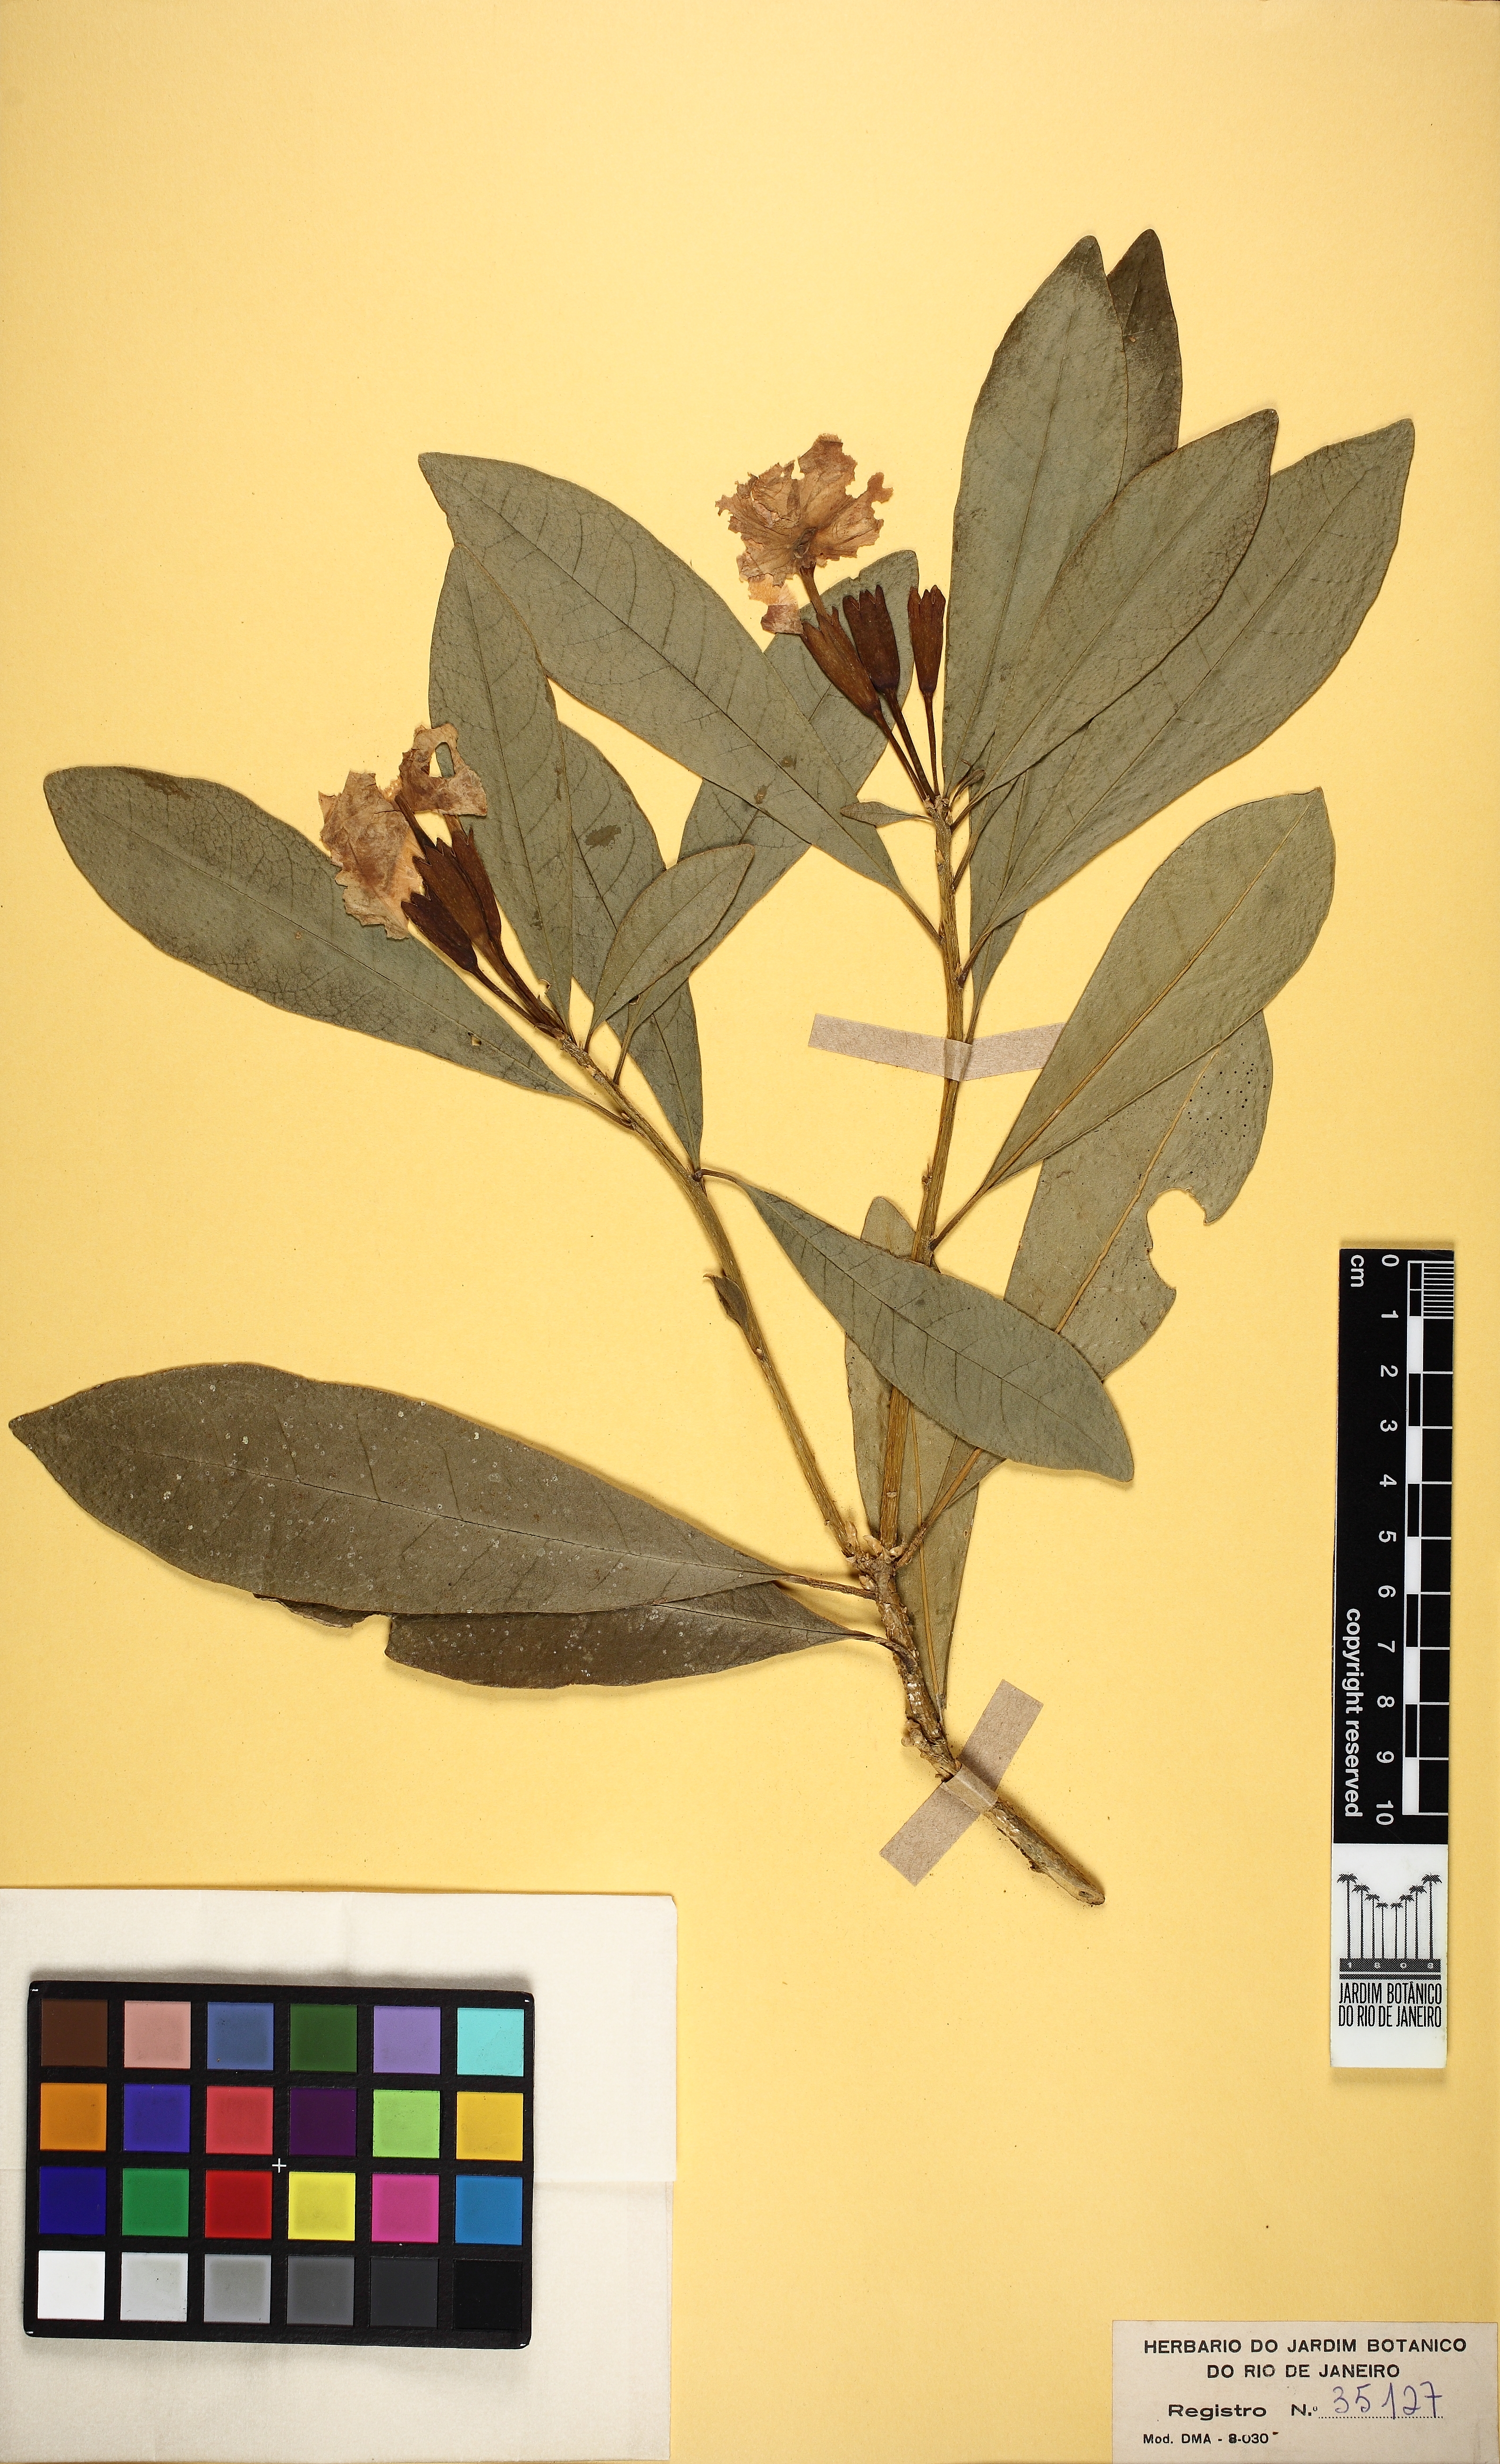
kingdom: Plantae
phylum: Tracheophyta
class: Magnoliopsida
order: Solanales
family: Solanaceae
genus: Brunfelsia
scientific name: Brunfelsia pauciflora
